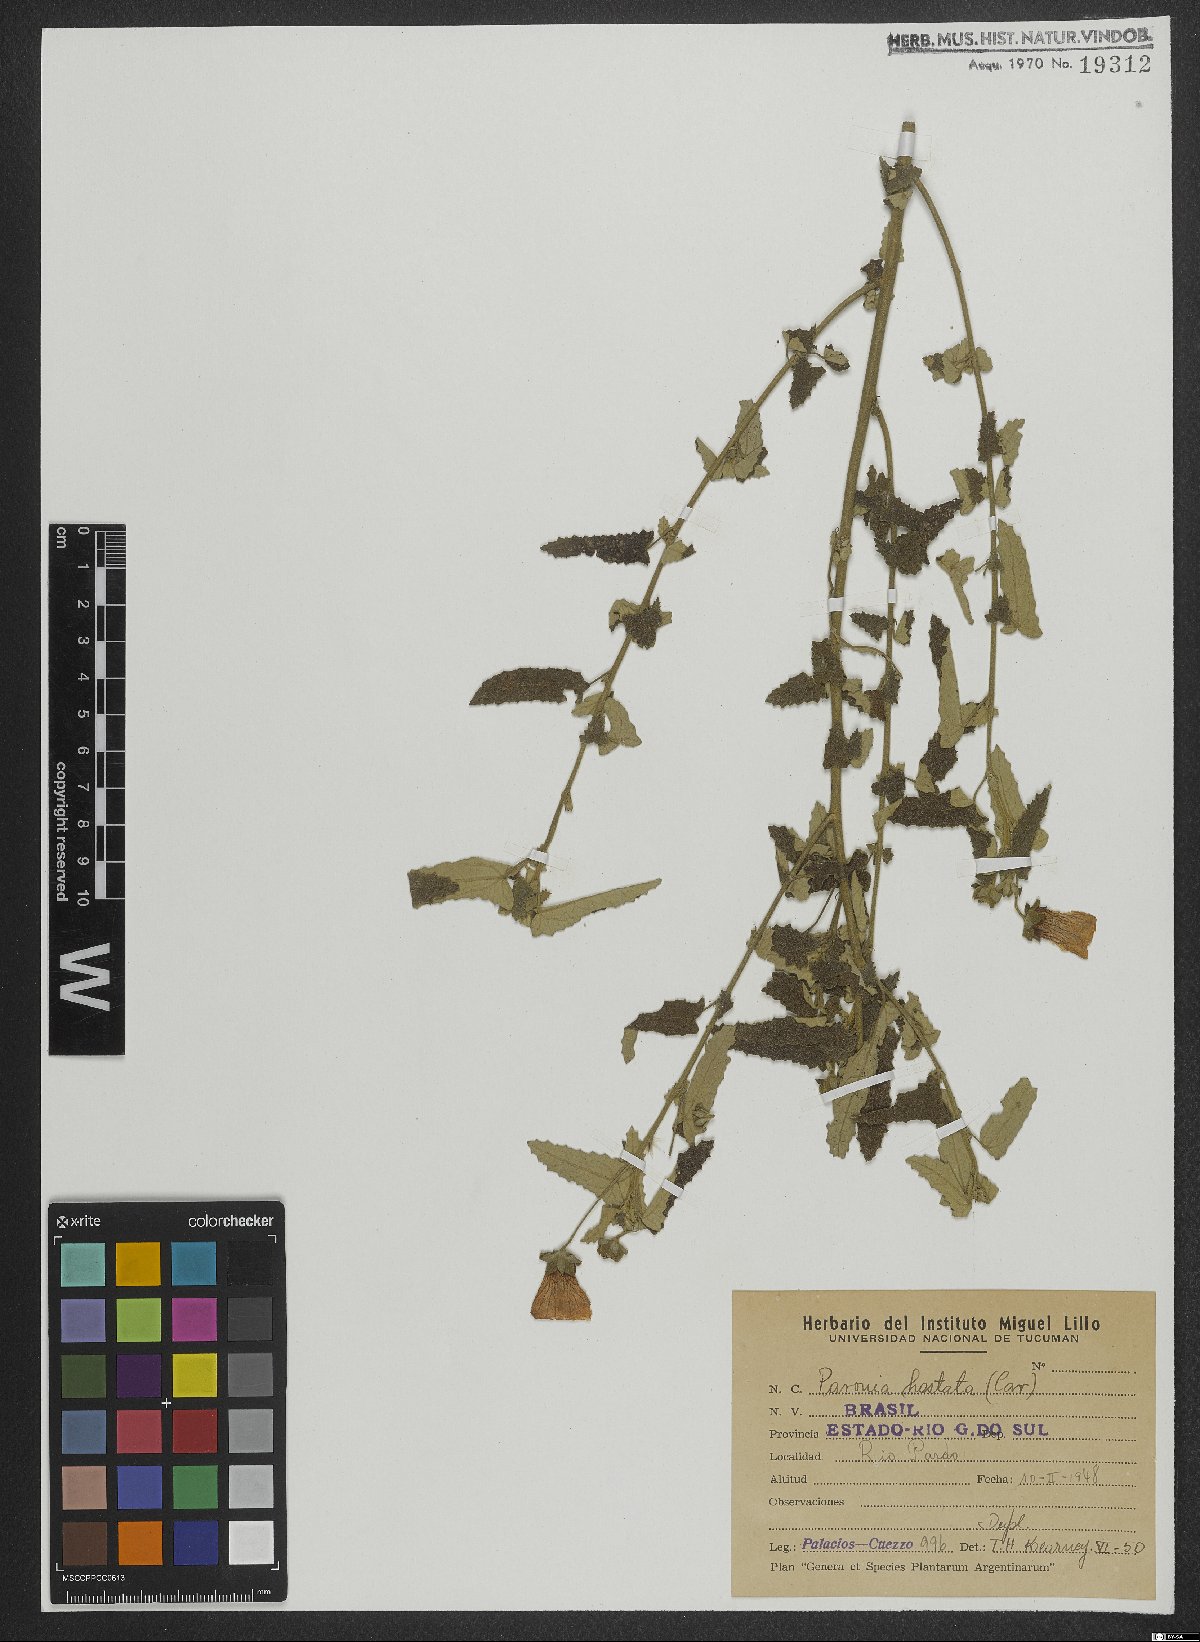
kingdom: Plantae
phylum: Tracheophyta
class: Magnoliopsida
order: Malvales
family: Malvaceae
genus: Pavonia
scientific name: Pavonia hastata
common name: Spearleaf swampmallow
